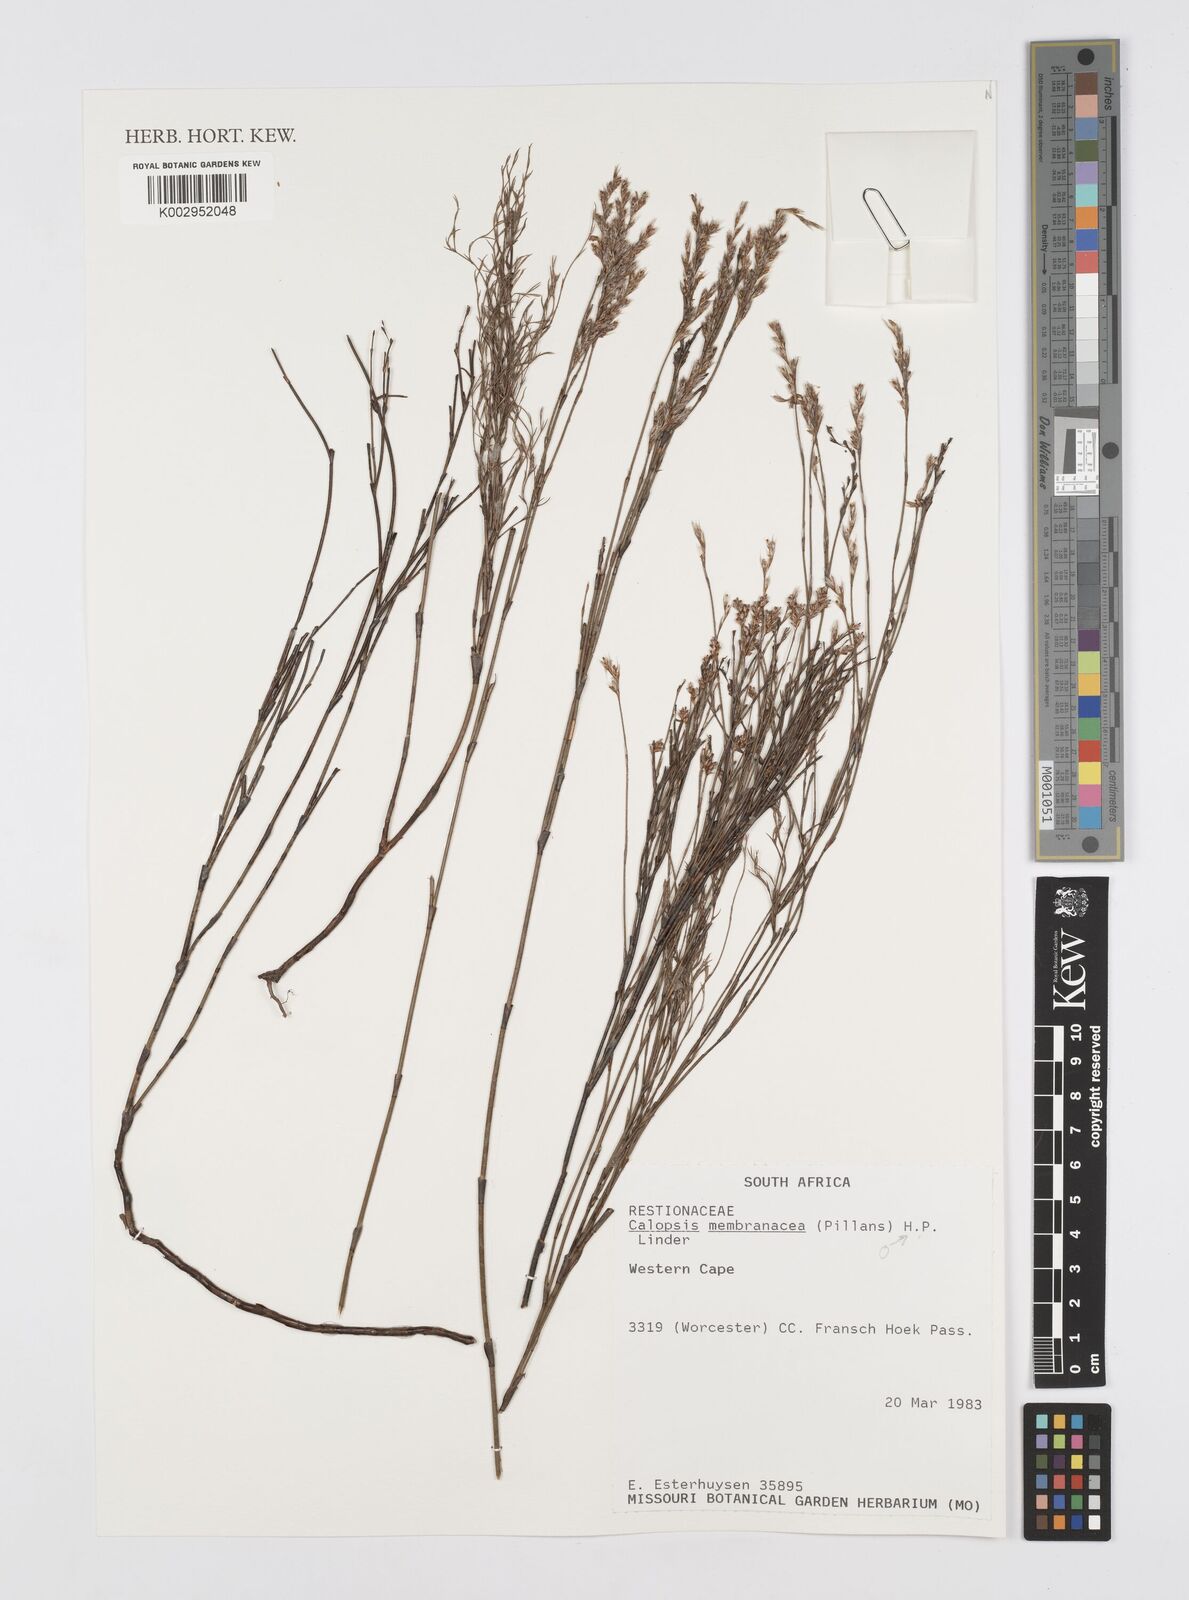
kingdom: Plantae
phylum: Tracheophyta
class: Liliopsida
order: Poales
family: Restionaceae
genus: Elegia
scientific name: Elegia intermedia
